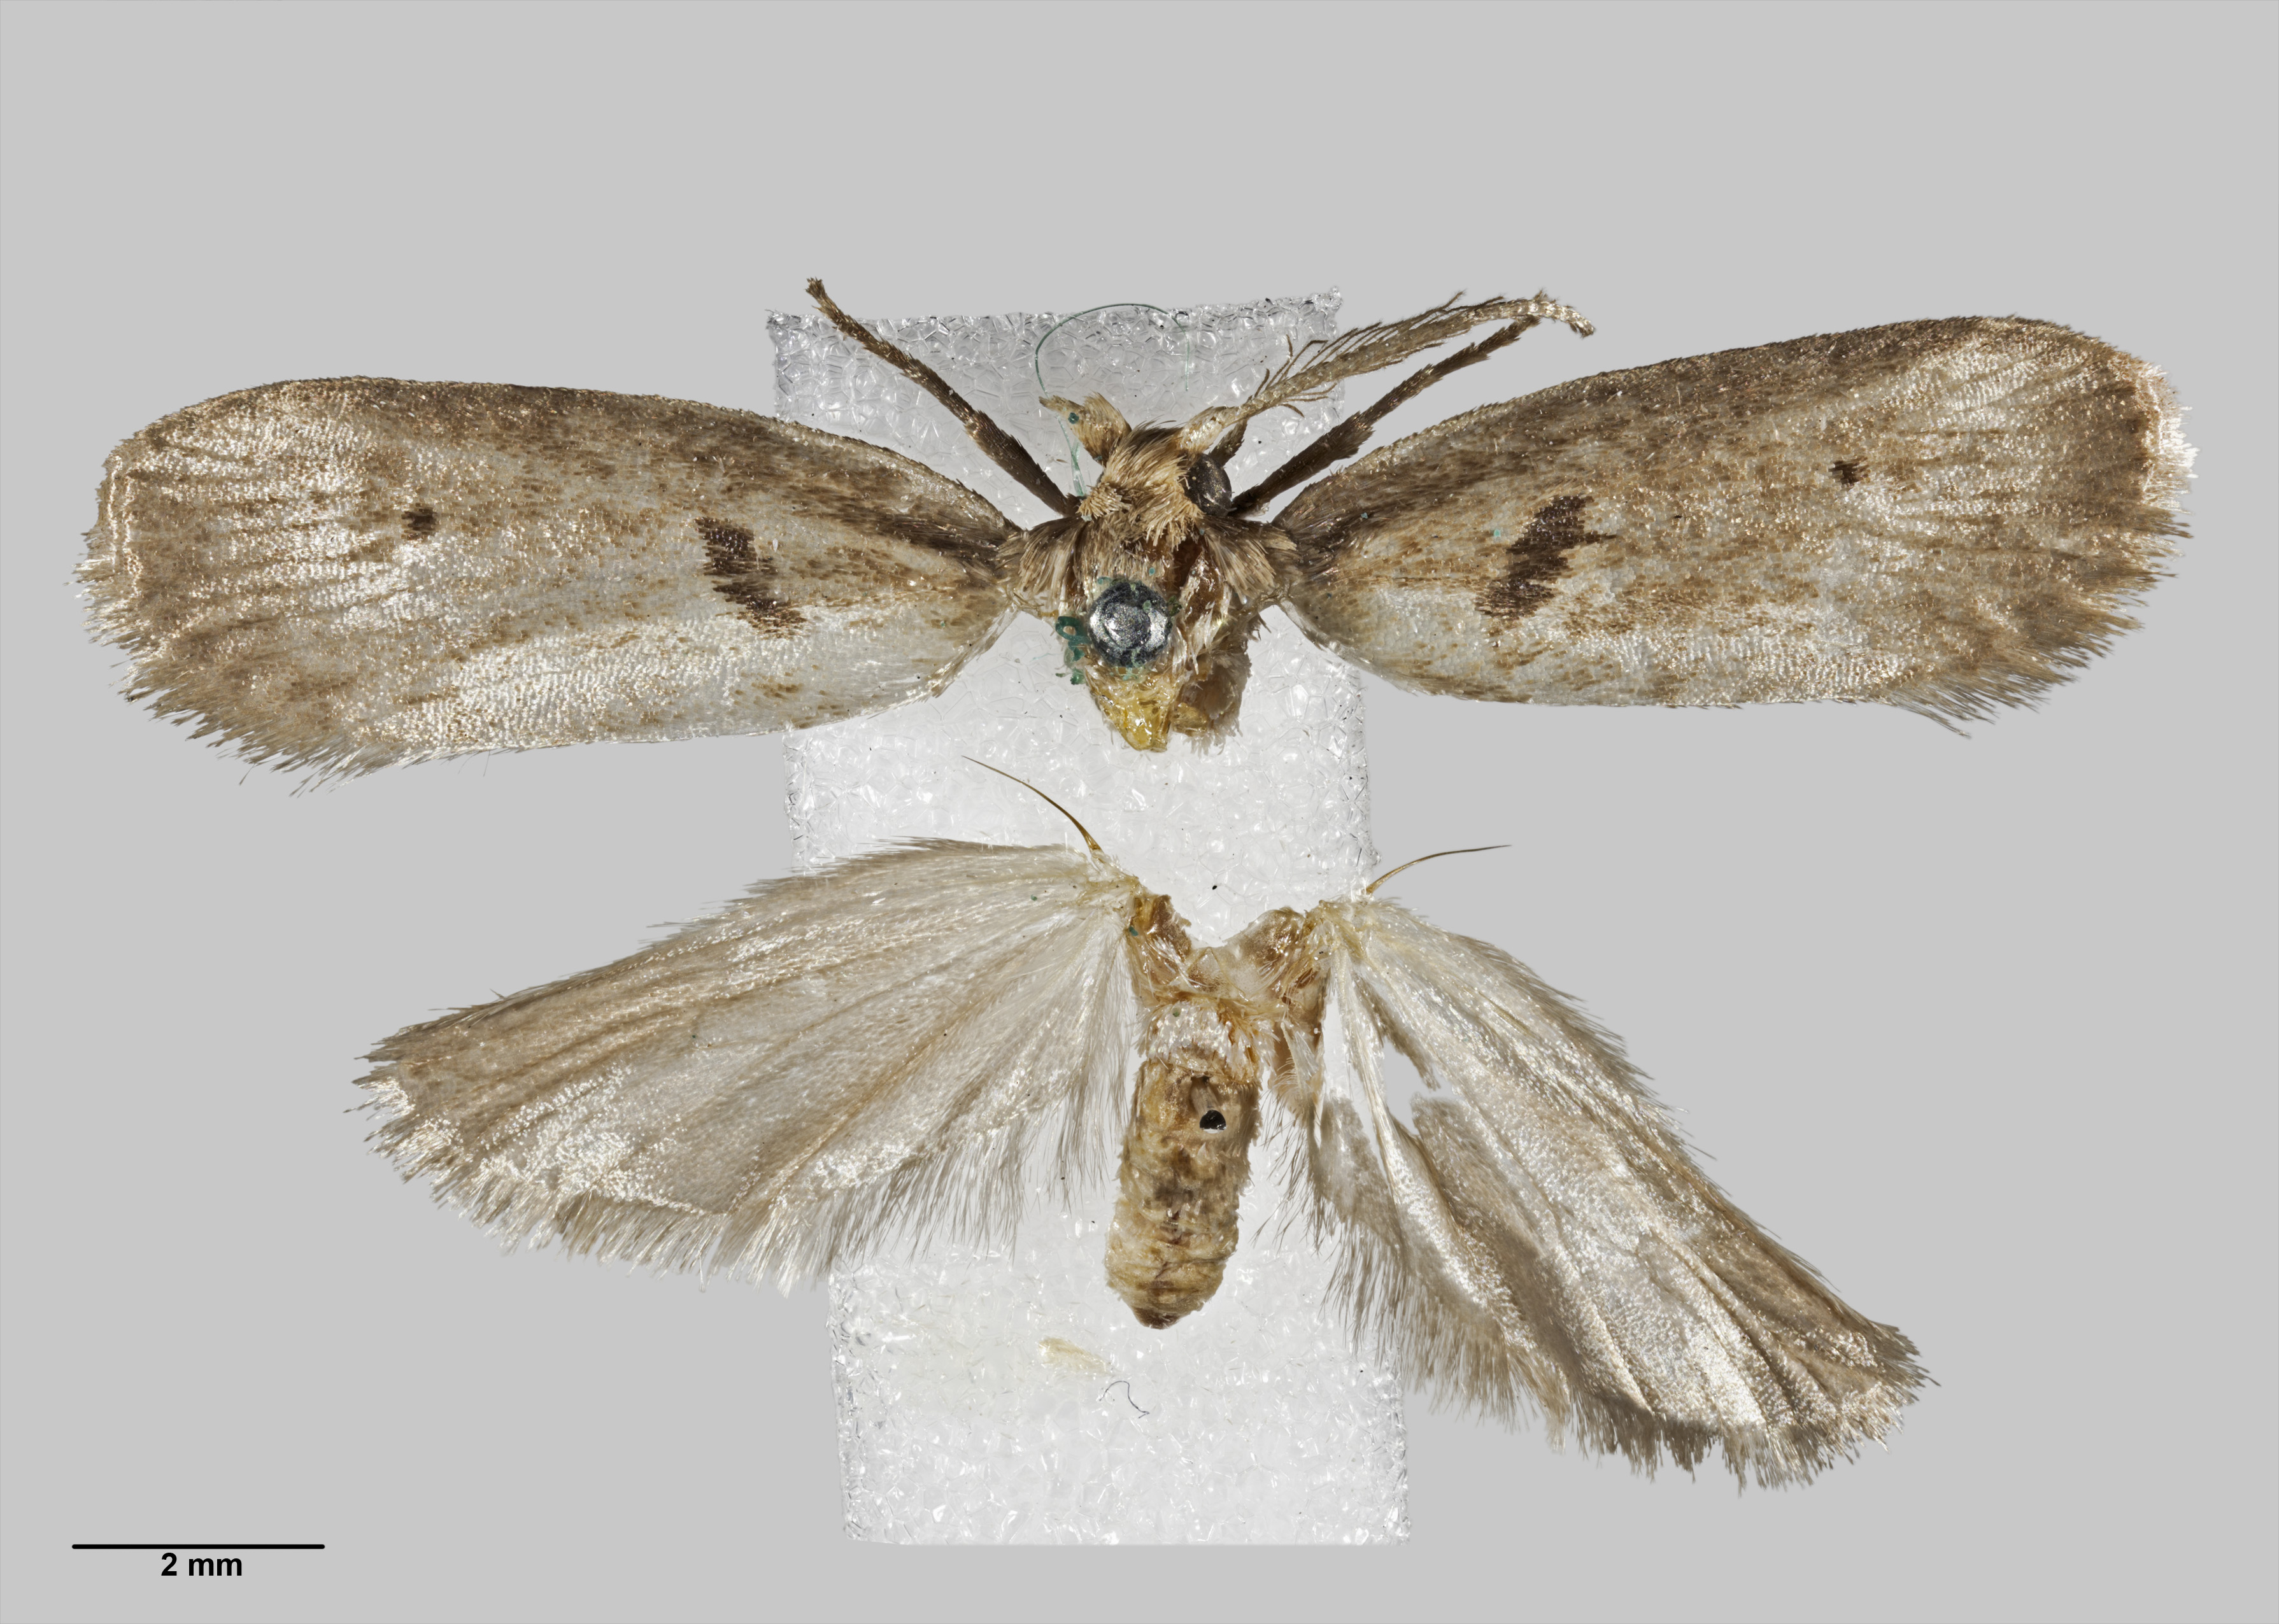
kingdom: Animalia
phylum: Arthropoda
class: Insecta
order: Lepidoptera
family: Galacticidae
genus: Tanaoctena
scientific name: Tanaoctena dubia
